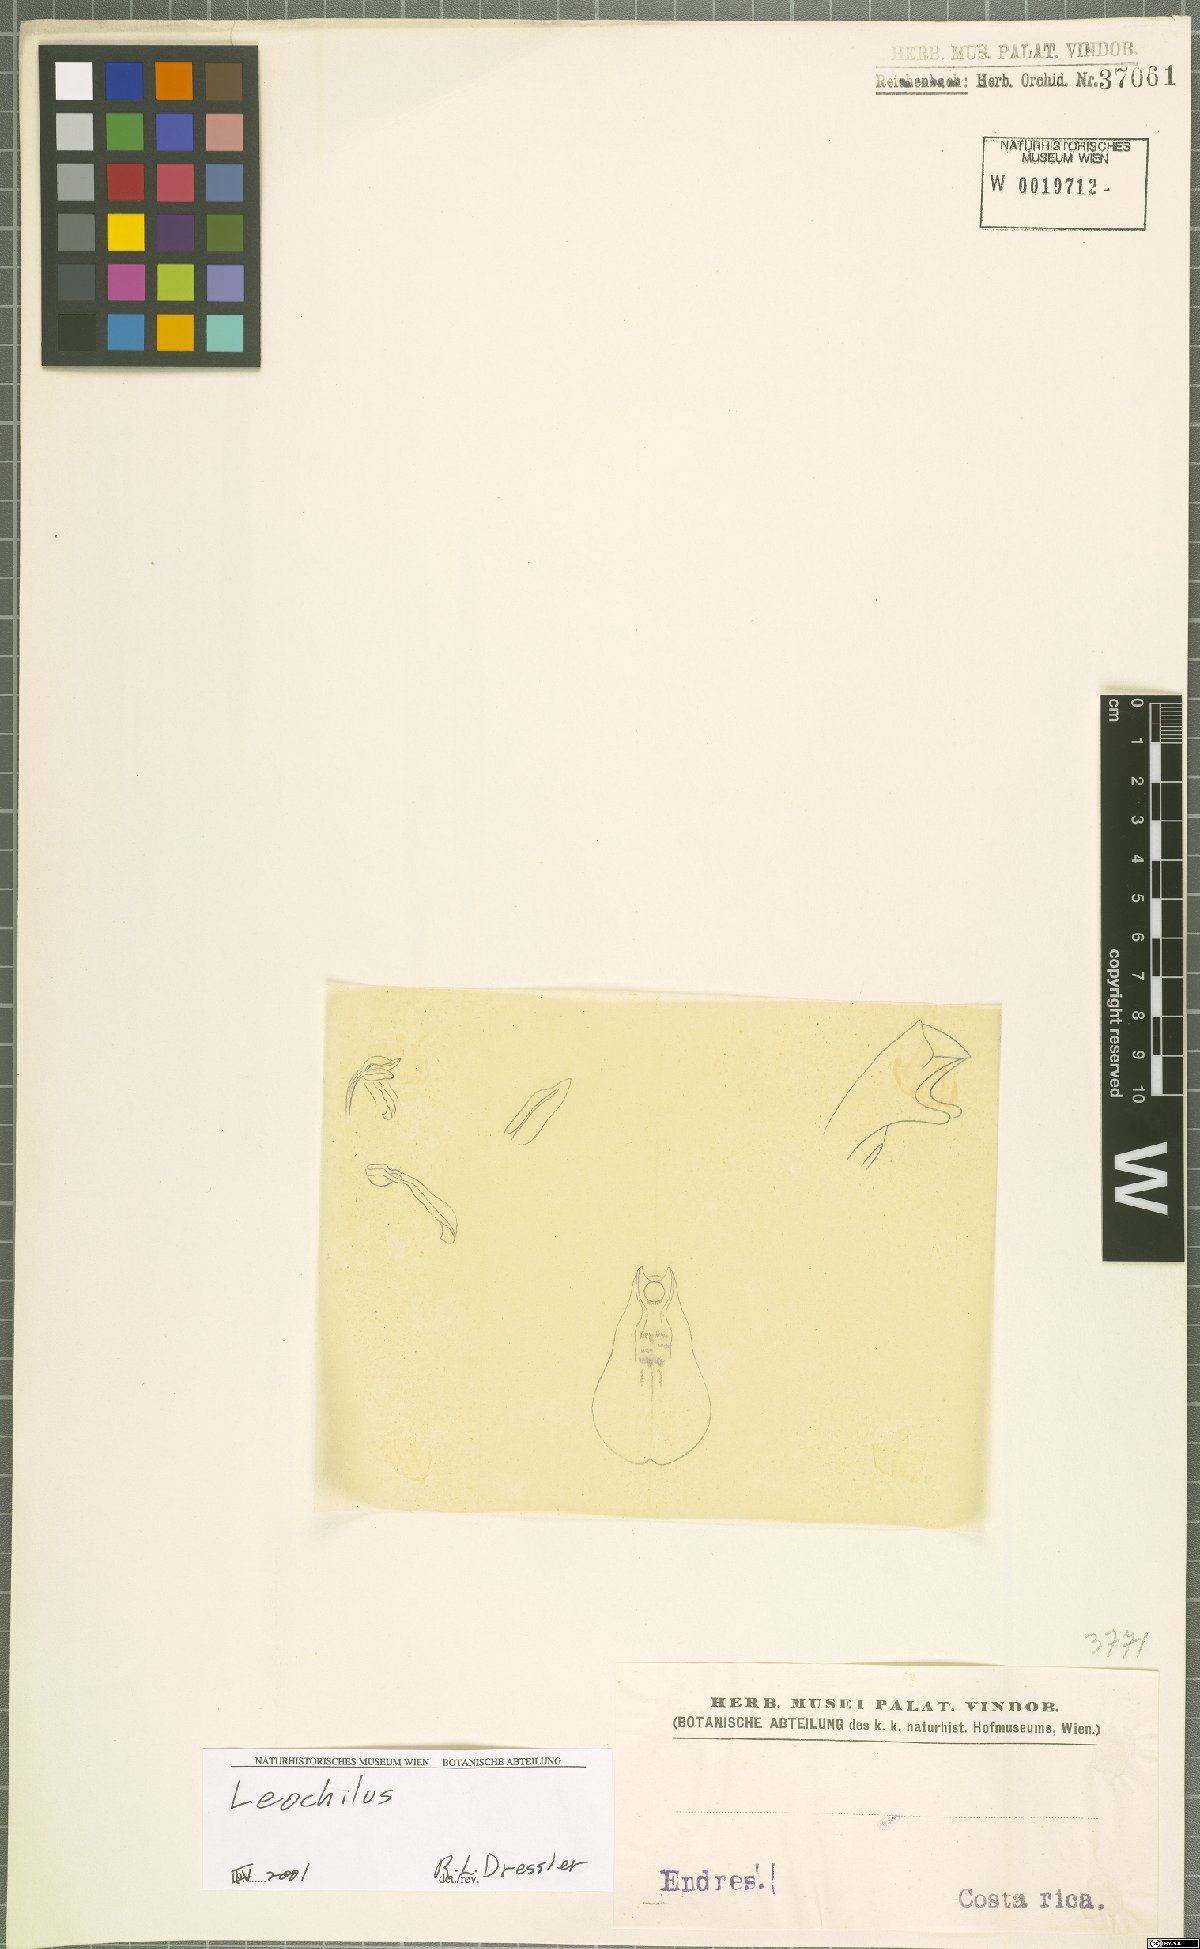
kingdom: Plantae
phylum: Tracheophyta
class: Liliopsida
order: Asparagales
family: Orchidaceae
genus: Leochilus
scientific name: Leochilus
